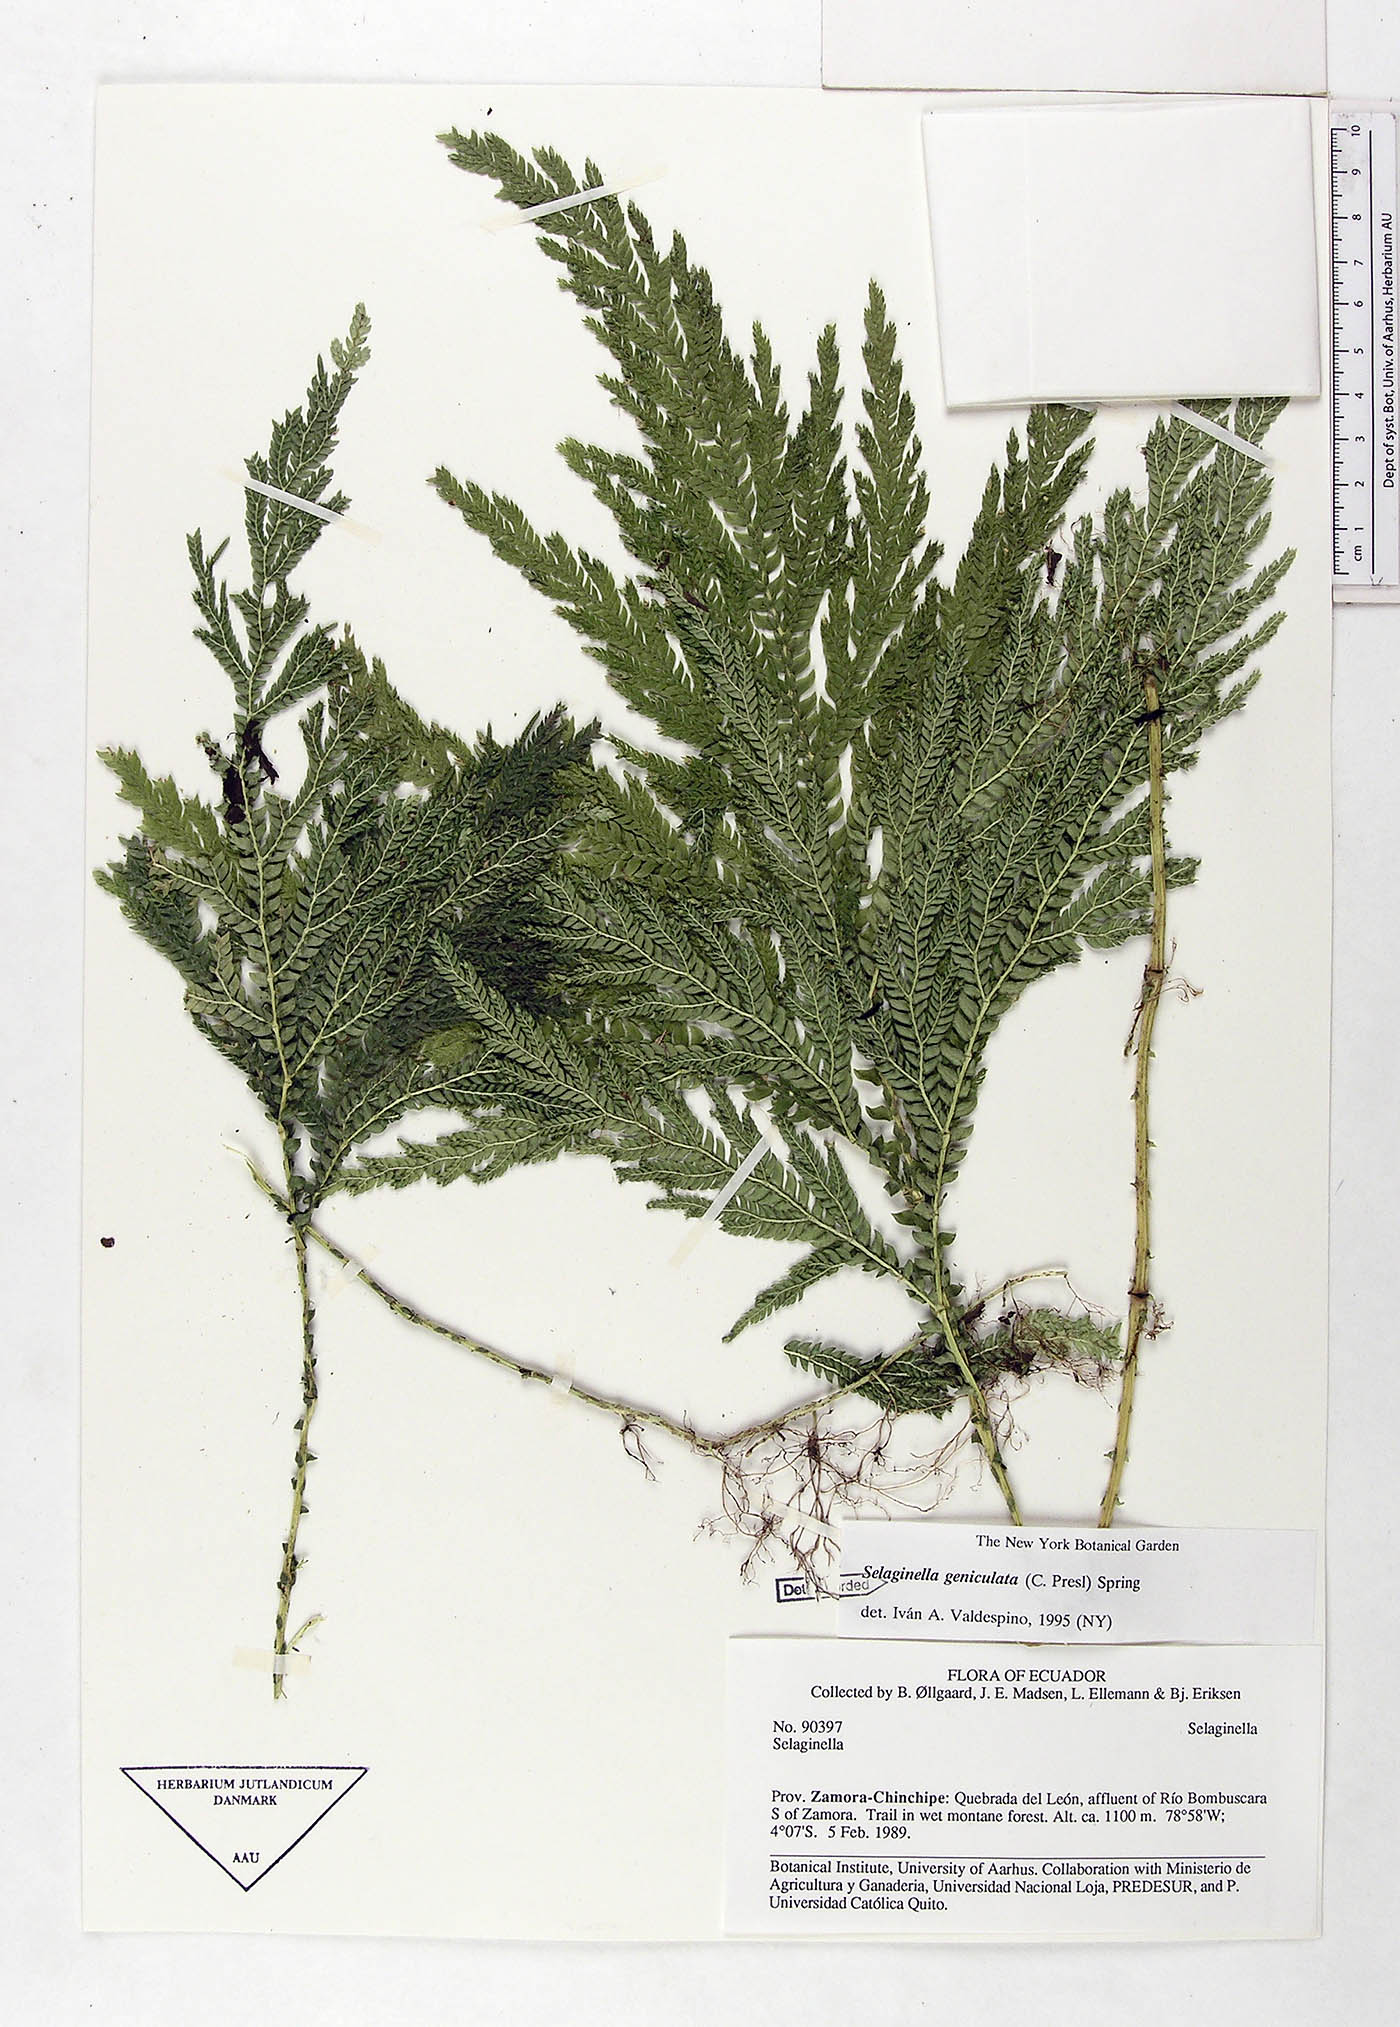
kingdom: Plantae
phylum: Tracheophyta
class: Lycopodiopsida
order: Selaginellales
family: Selaginellaceae
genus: Selaginella
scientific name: Selaginella geniculata
